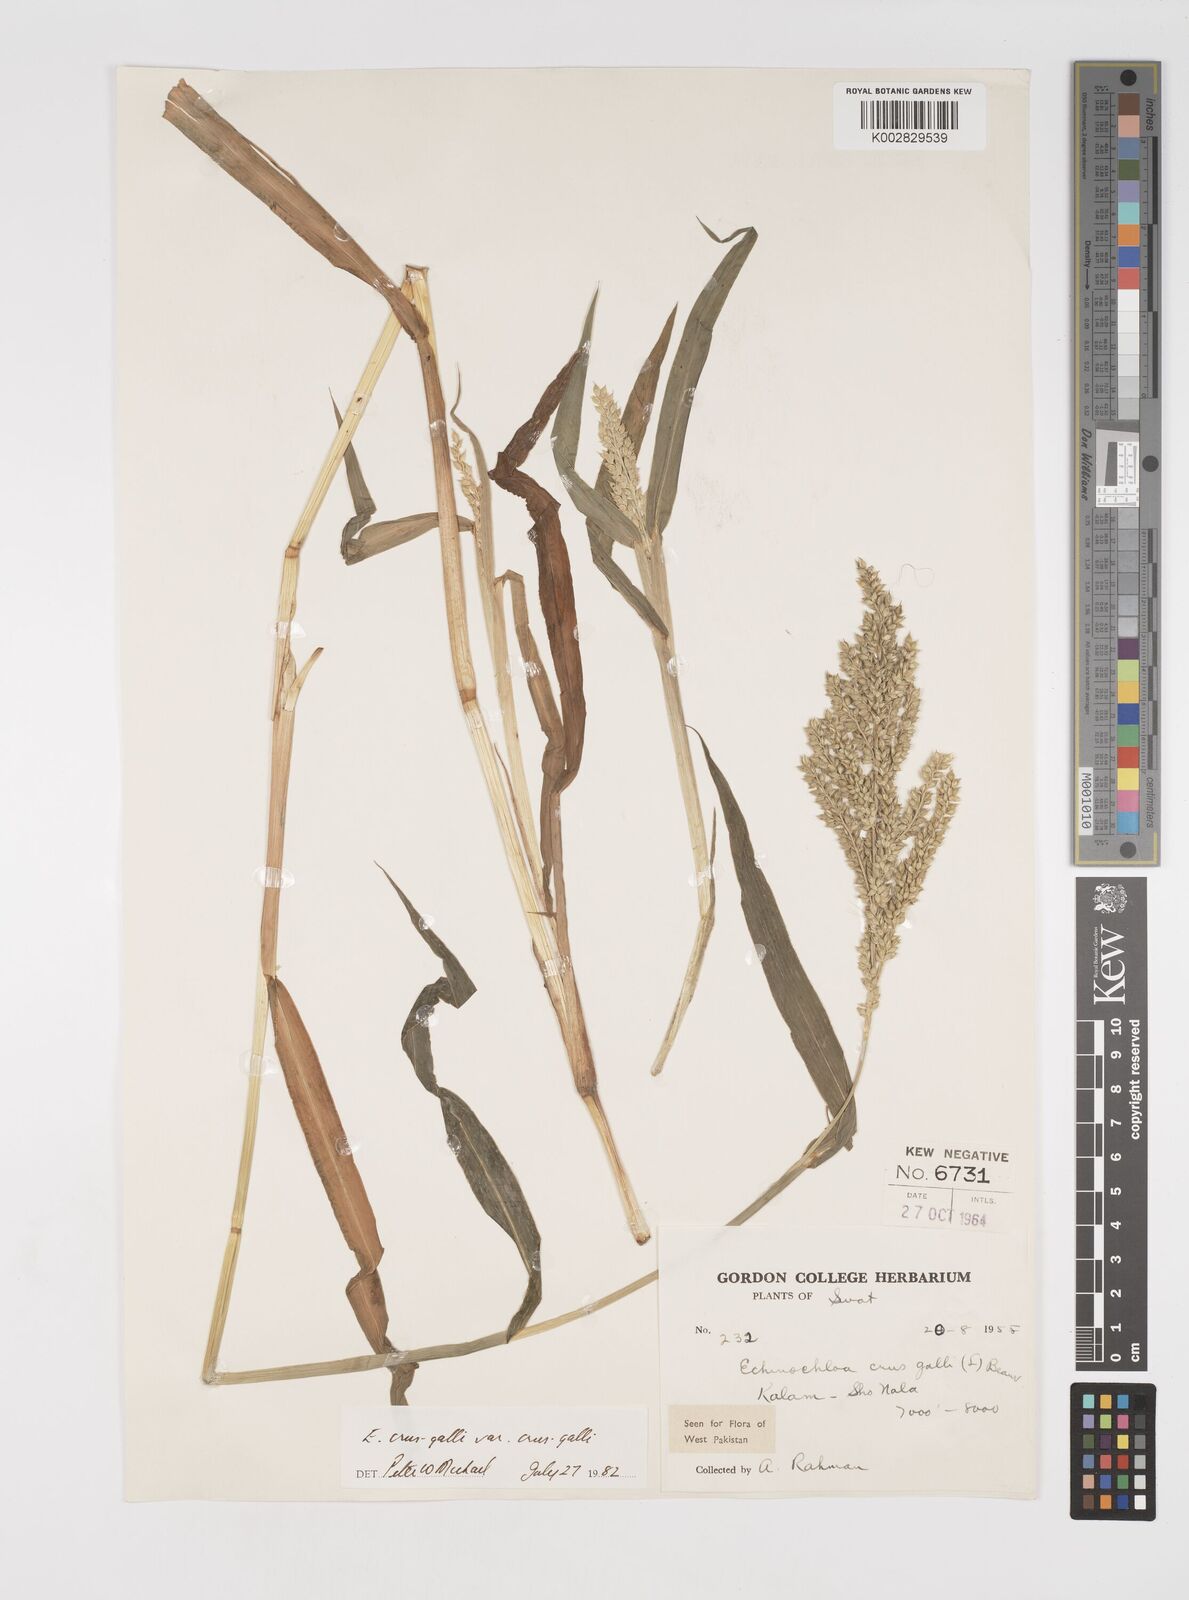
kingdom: Plantae
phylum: Tracheophyta
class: Liliopsida
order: Poales
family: Poaceae
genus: Echinochloa
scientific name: Echinochloa crus-galli
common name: Cockspur
